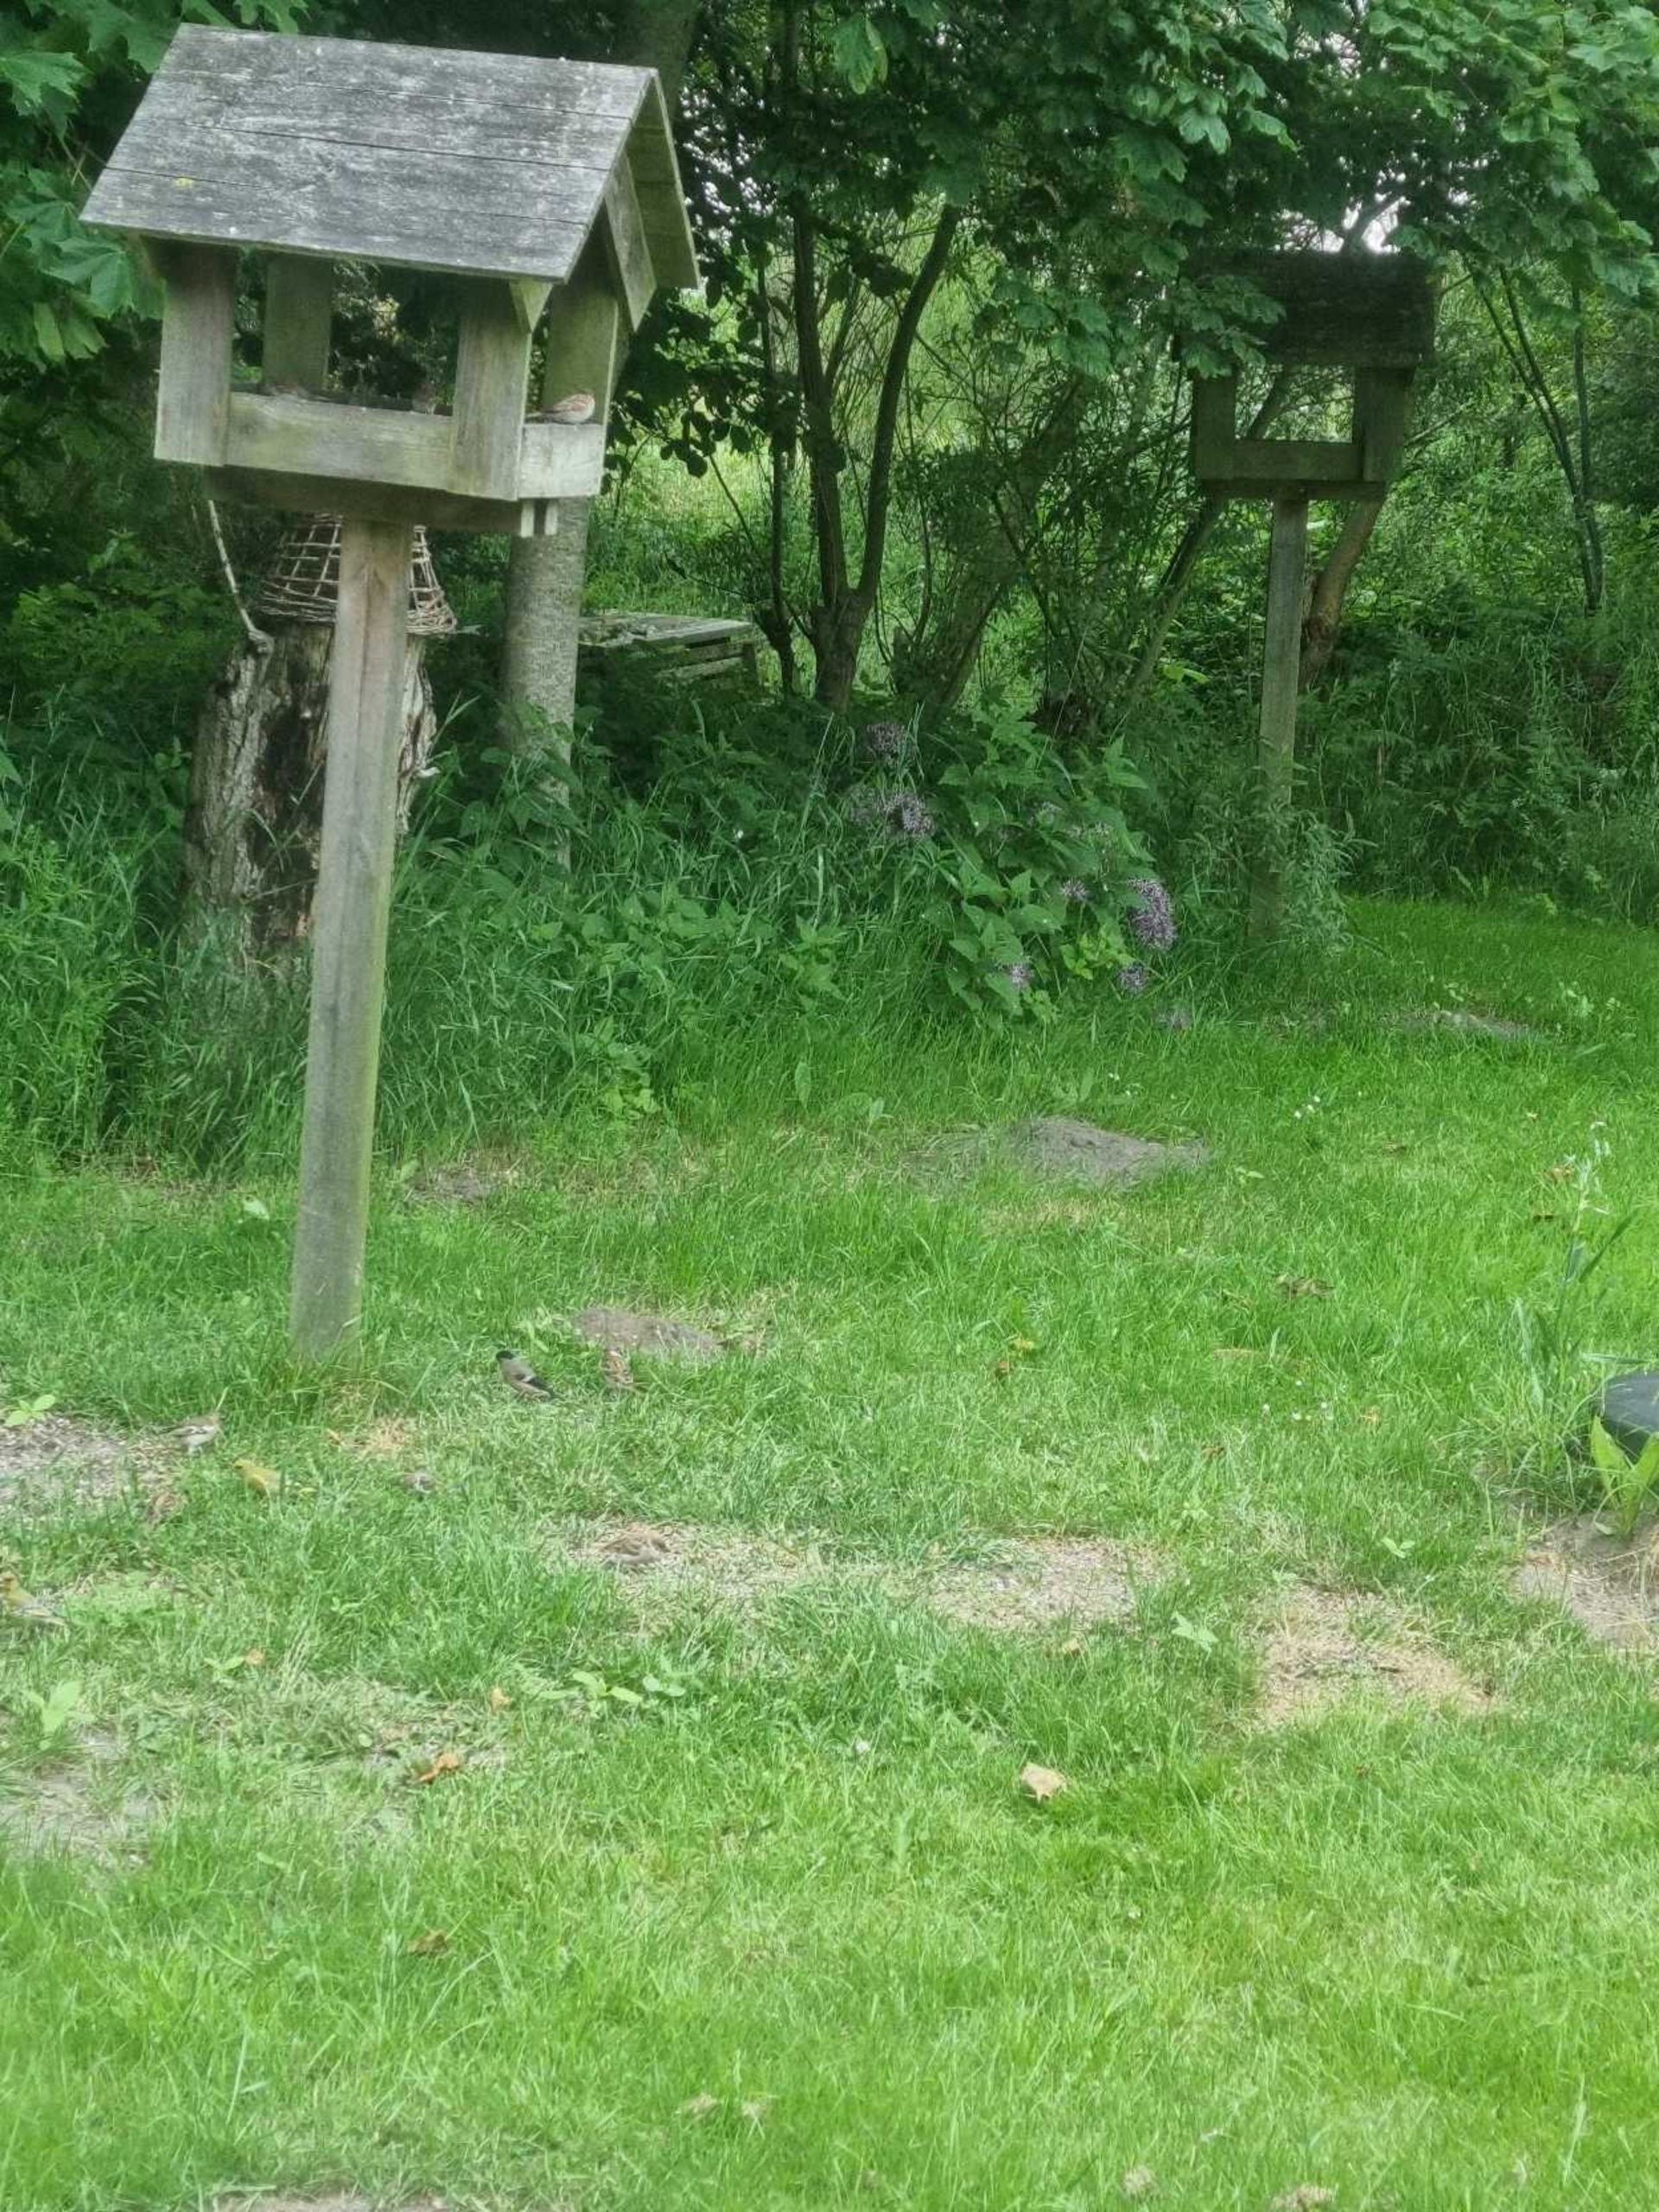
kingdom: Animalia
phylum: Chordata
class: Aves
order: Passeriformes
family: Fringillidae
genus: Pyrrhula
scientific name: Pyrrhula pyrrhula
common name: Dompap
